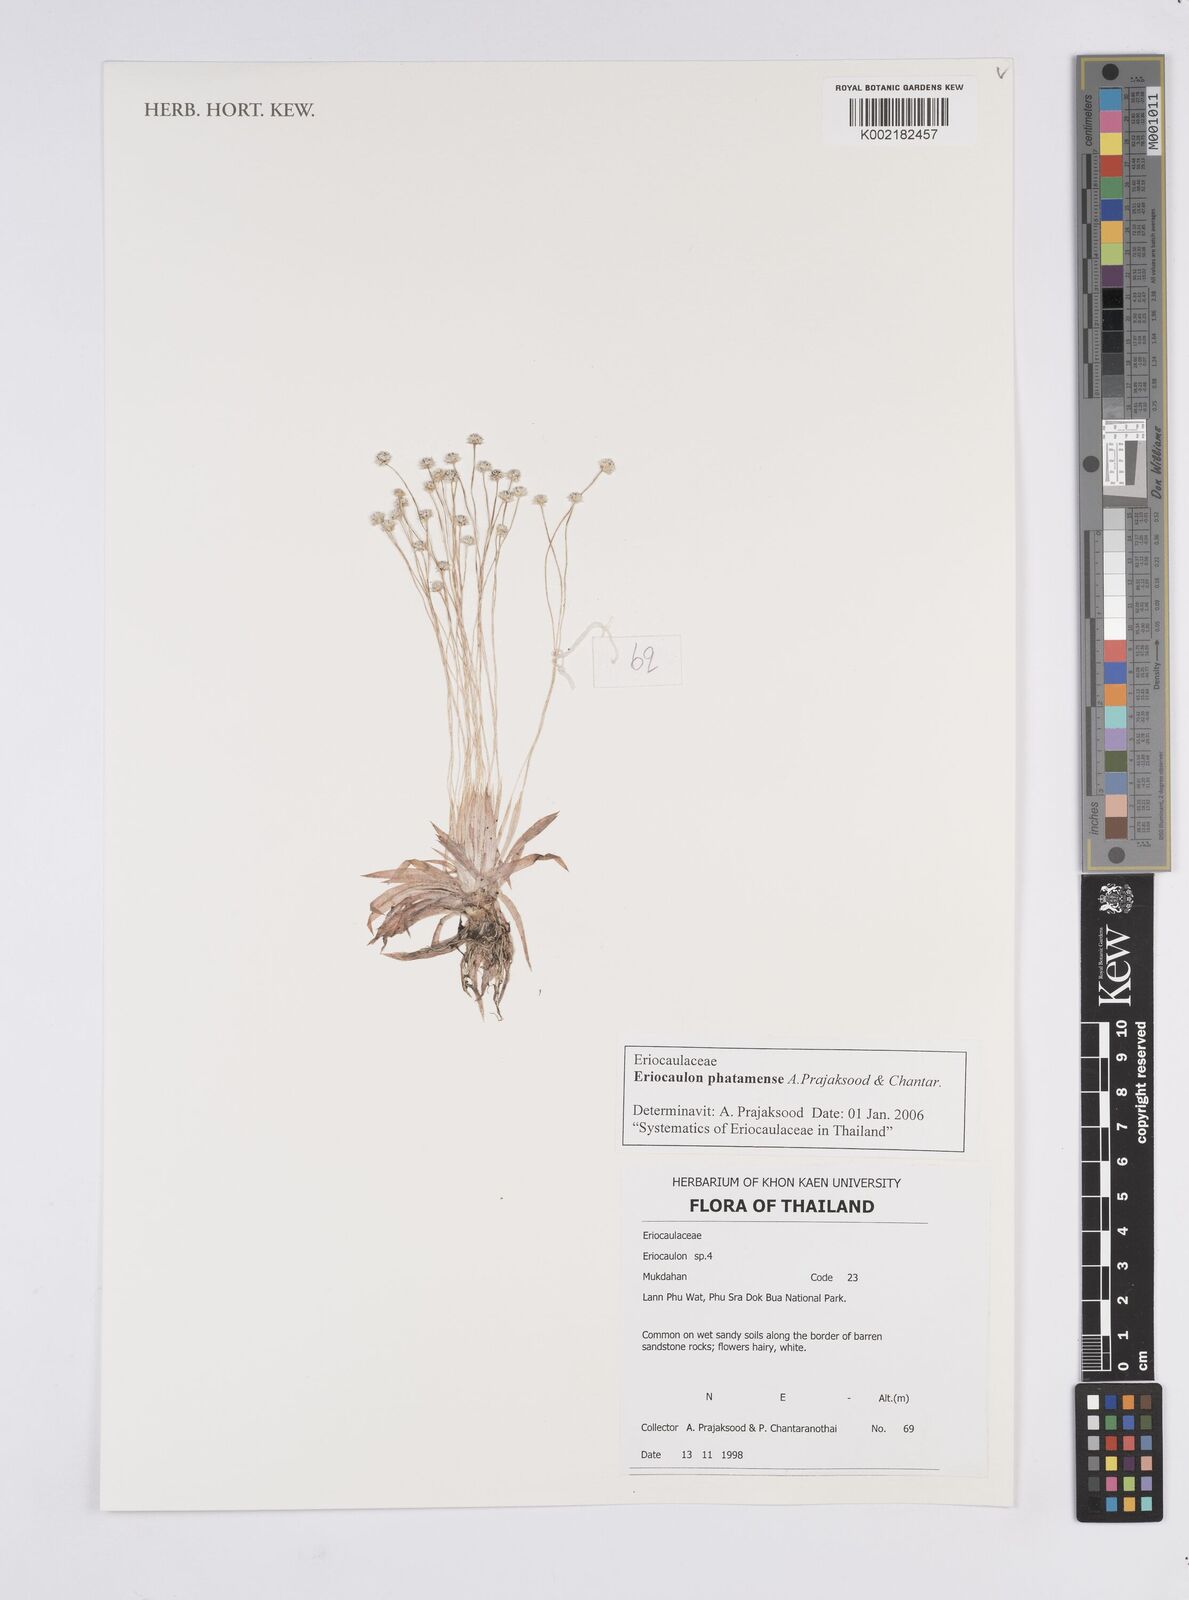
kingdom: Plantae
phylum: Tracheophyta
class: Liliopsida
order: Poales
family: Eriocaulaceae
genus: Eriocaulon
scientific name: Eriocaulon phatamense
